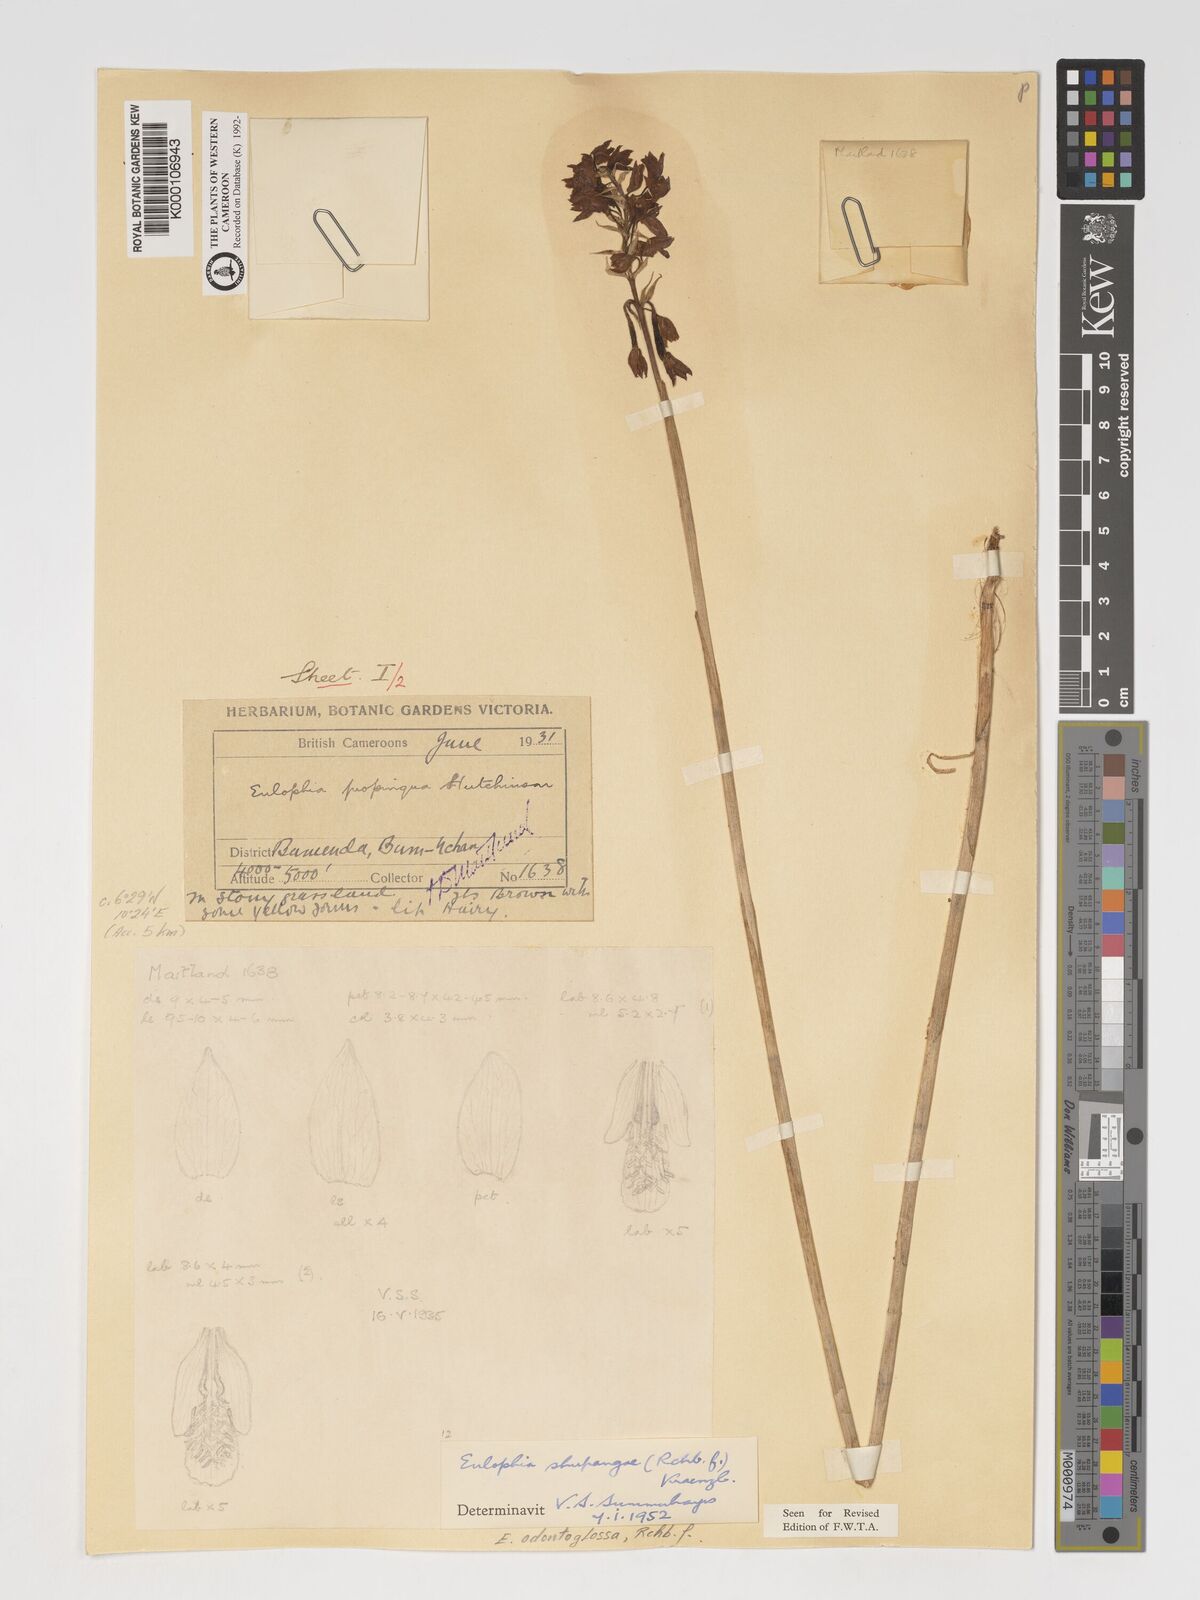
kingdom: Plantae
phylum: Tracheophyta
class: Liliopsida
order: Asparagales
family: Orchidaceae
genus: Eulophia
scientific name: Eulophia odontoglossa
